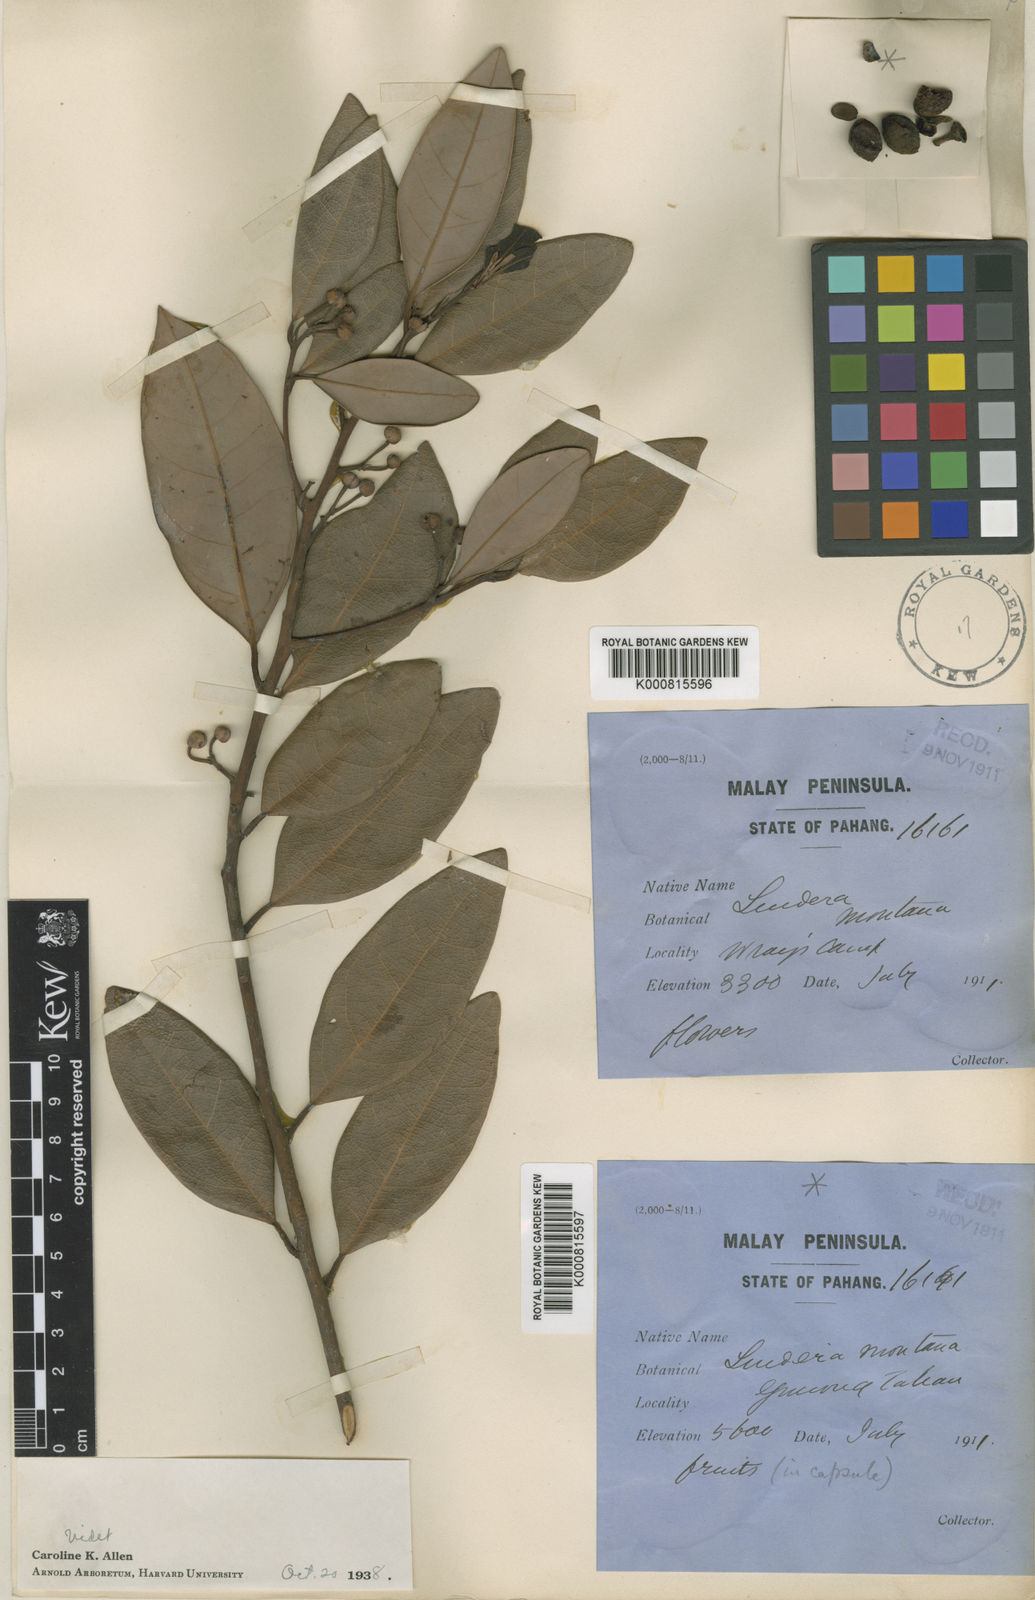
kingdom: Plantae
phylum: Tracheophyta
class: Magnoliopsida
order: Laurales
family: Lauraceae
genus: Lindera
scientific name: Lindera montana
